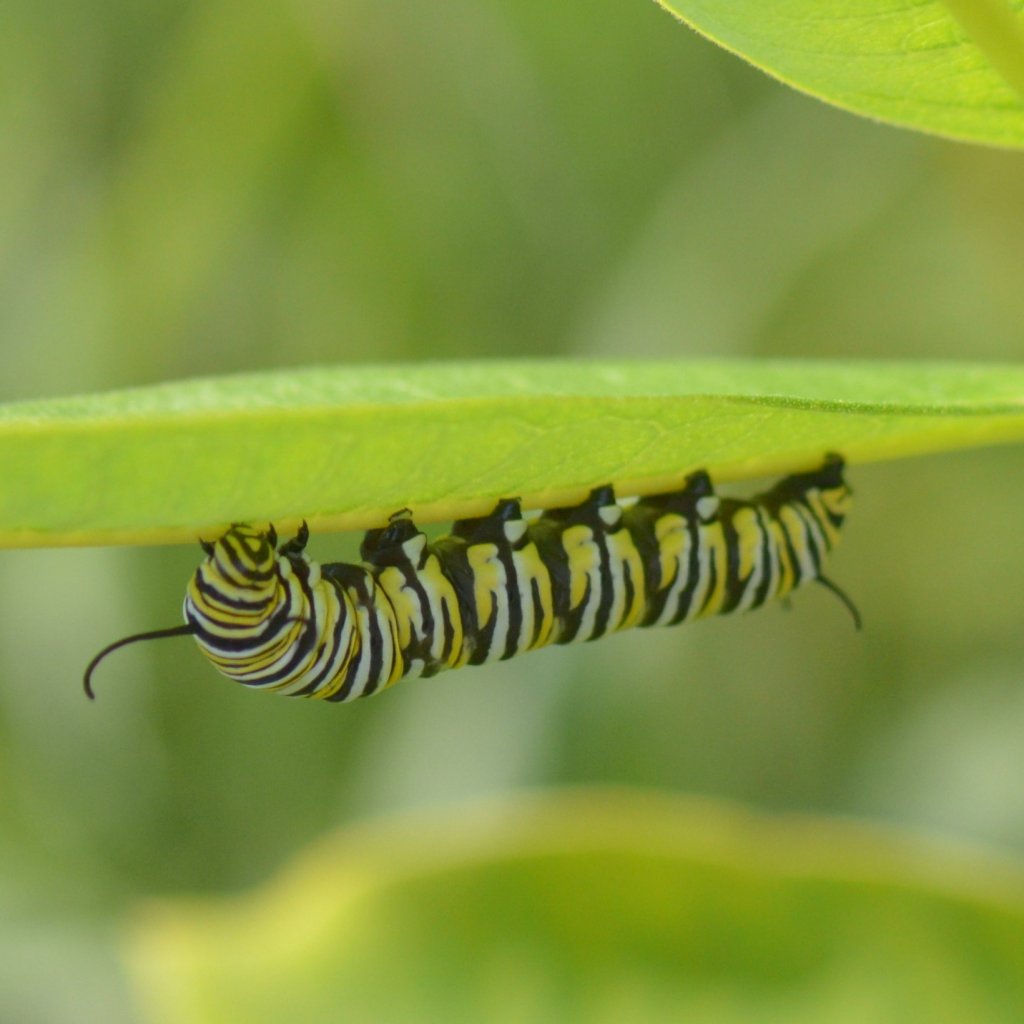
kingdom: Animalia
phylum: Arthropoda
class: Insecta
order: Lepidoptera
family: Nymphalidae
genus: Danaus
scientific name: Danaus plexippus
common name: Monarch
